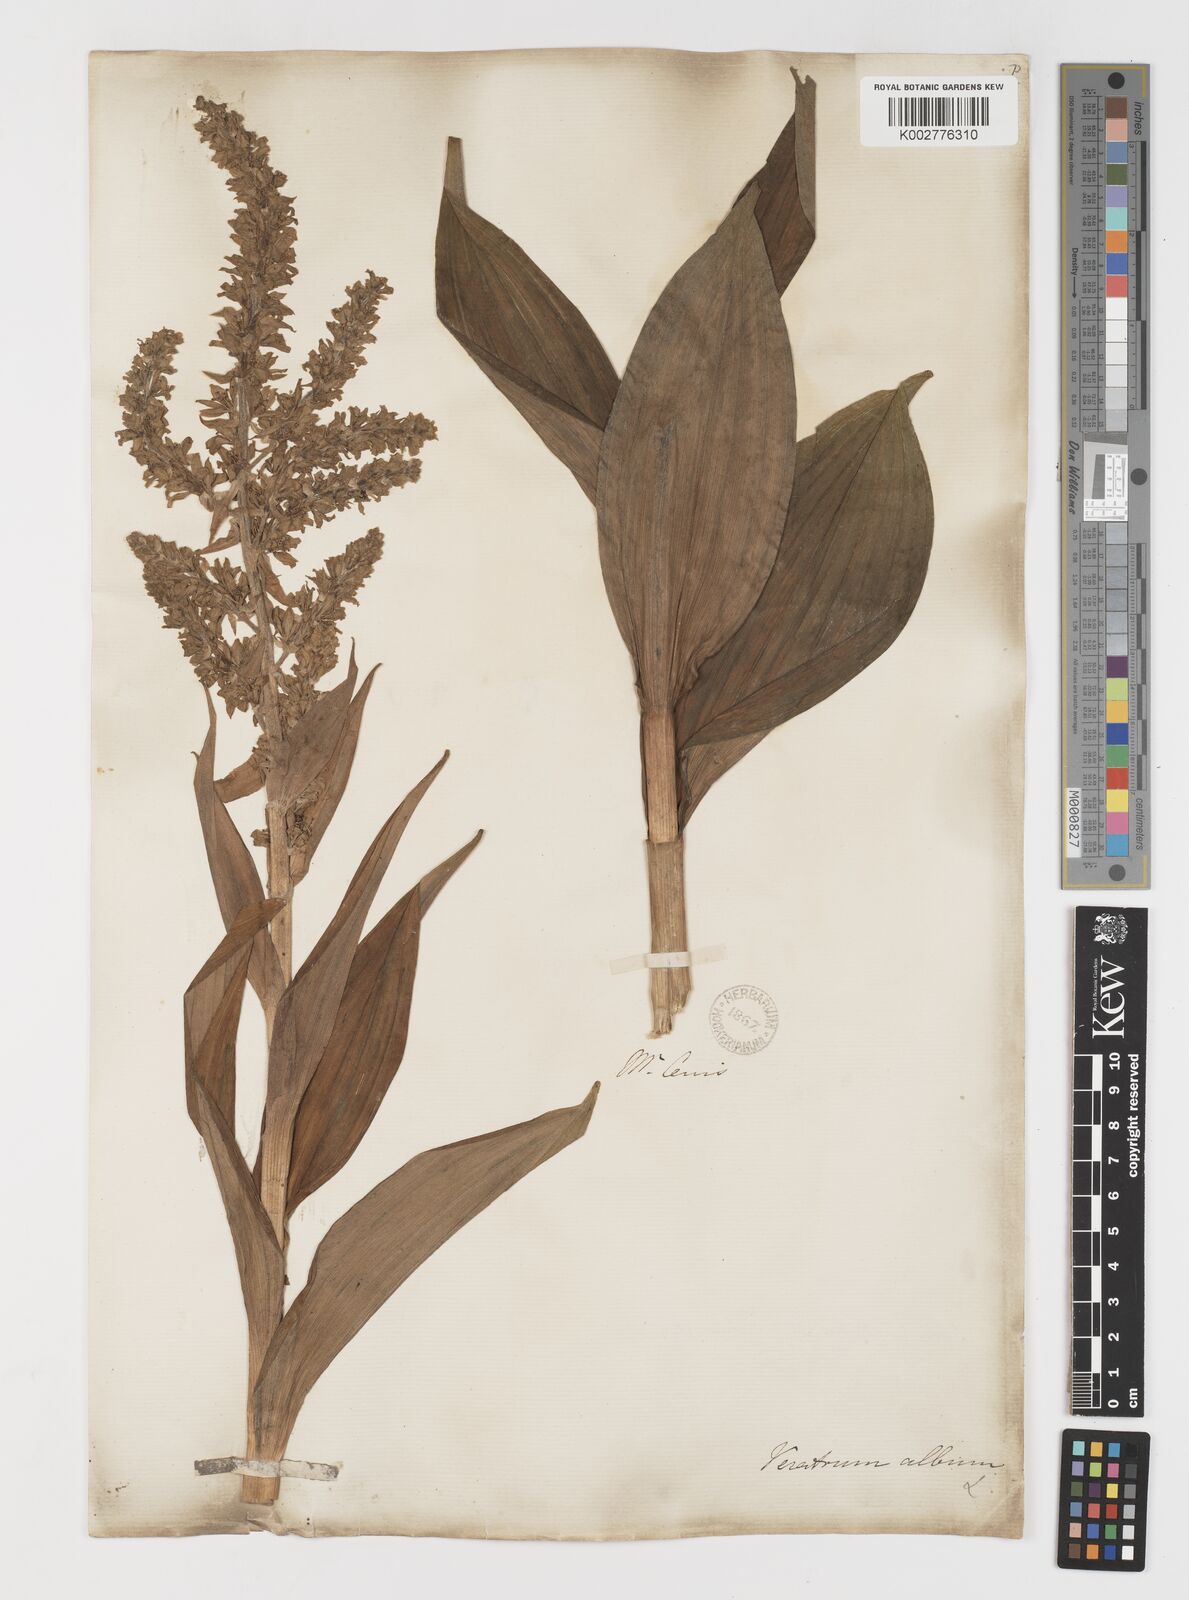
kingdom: Plantae
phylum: Tracheophyta
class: Liliopsida
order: Liliales
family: Melanthiaceae
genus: Veratrum
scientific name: Veratrum album
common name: White veratrum
